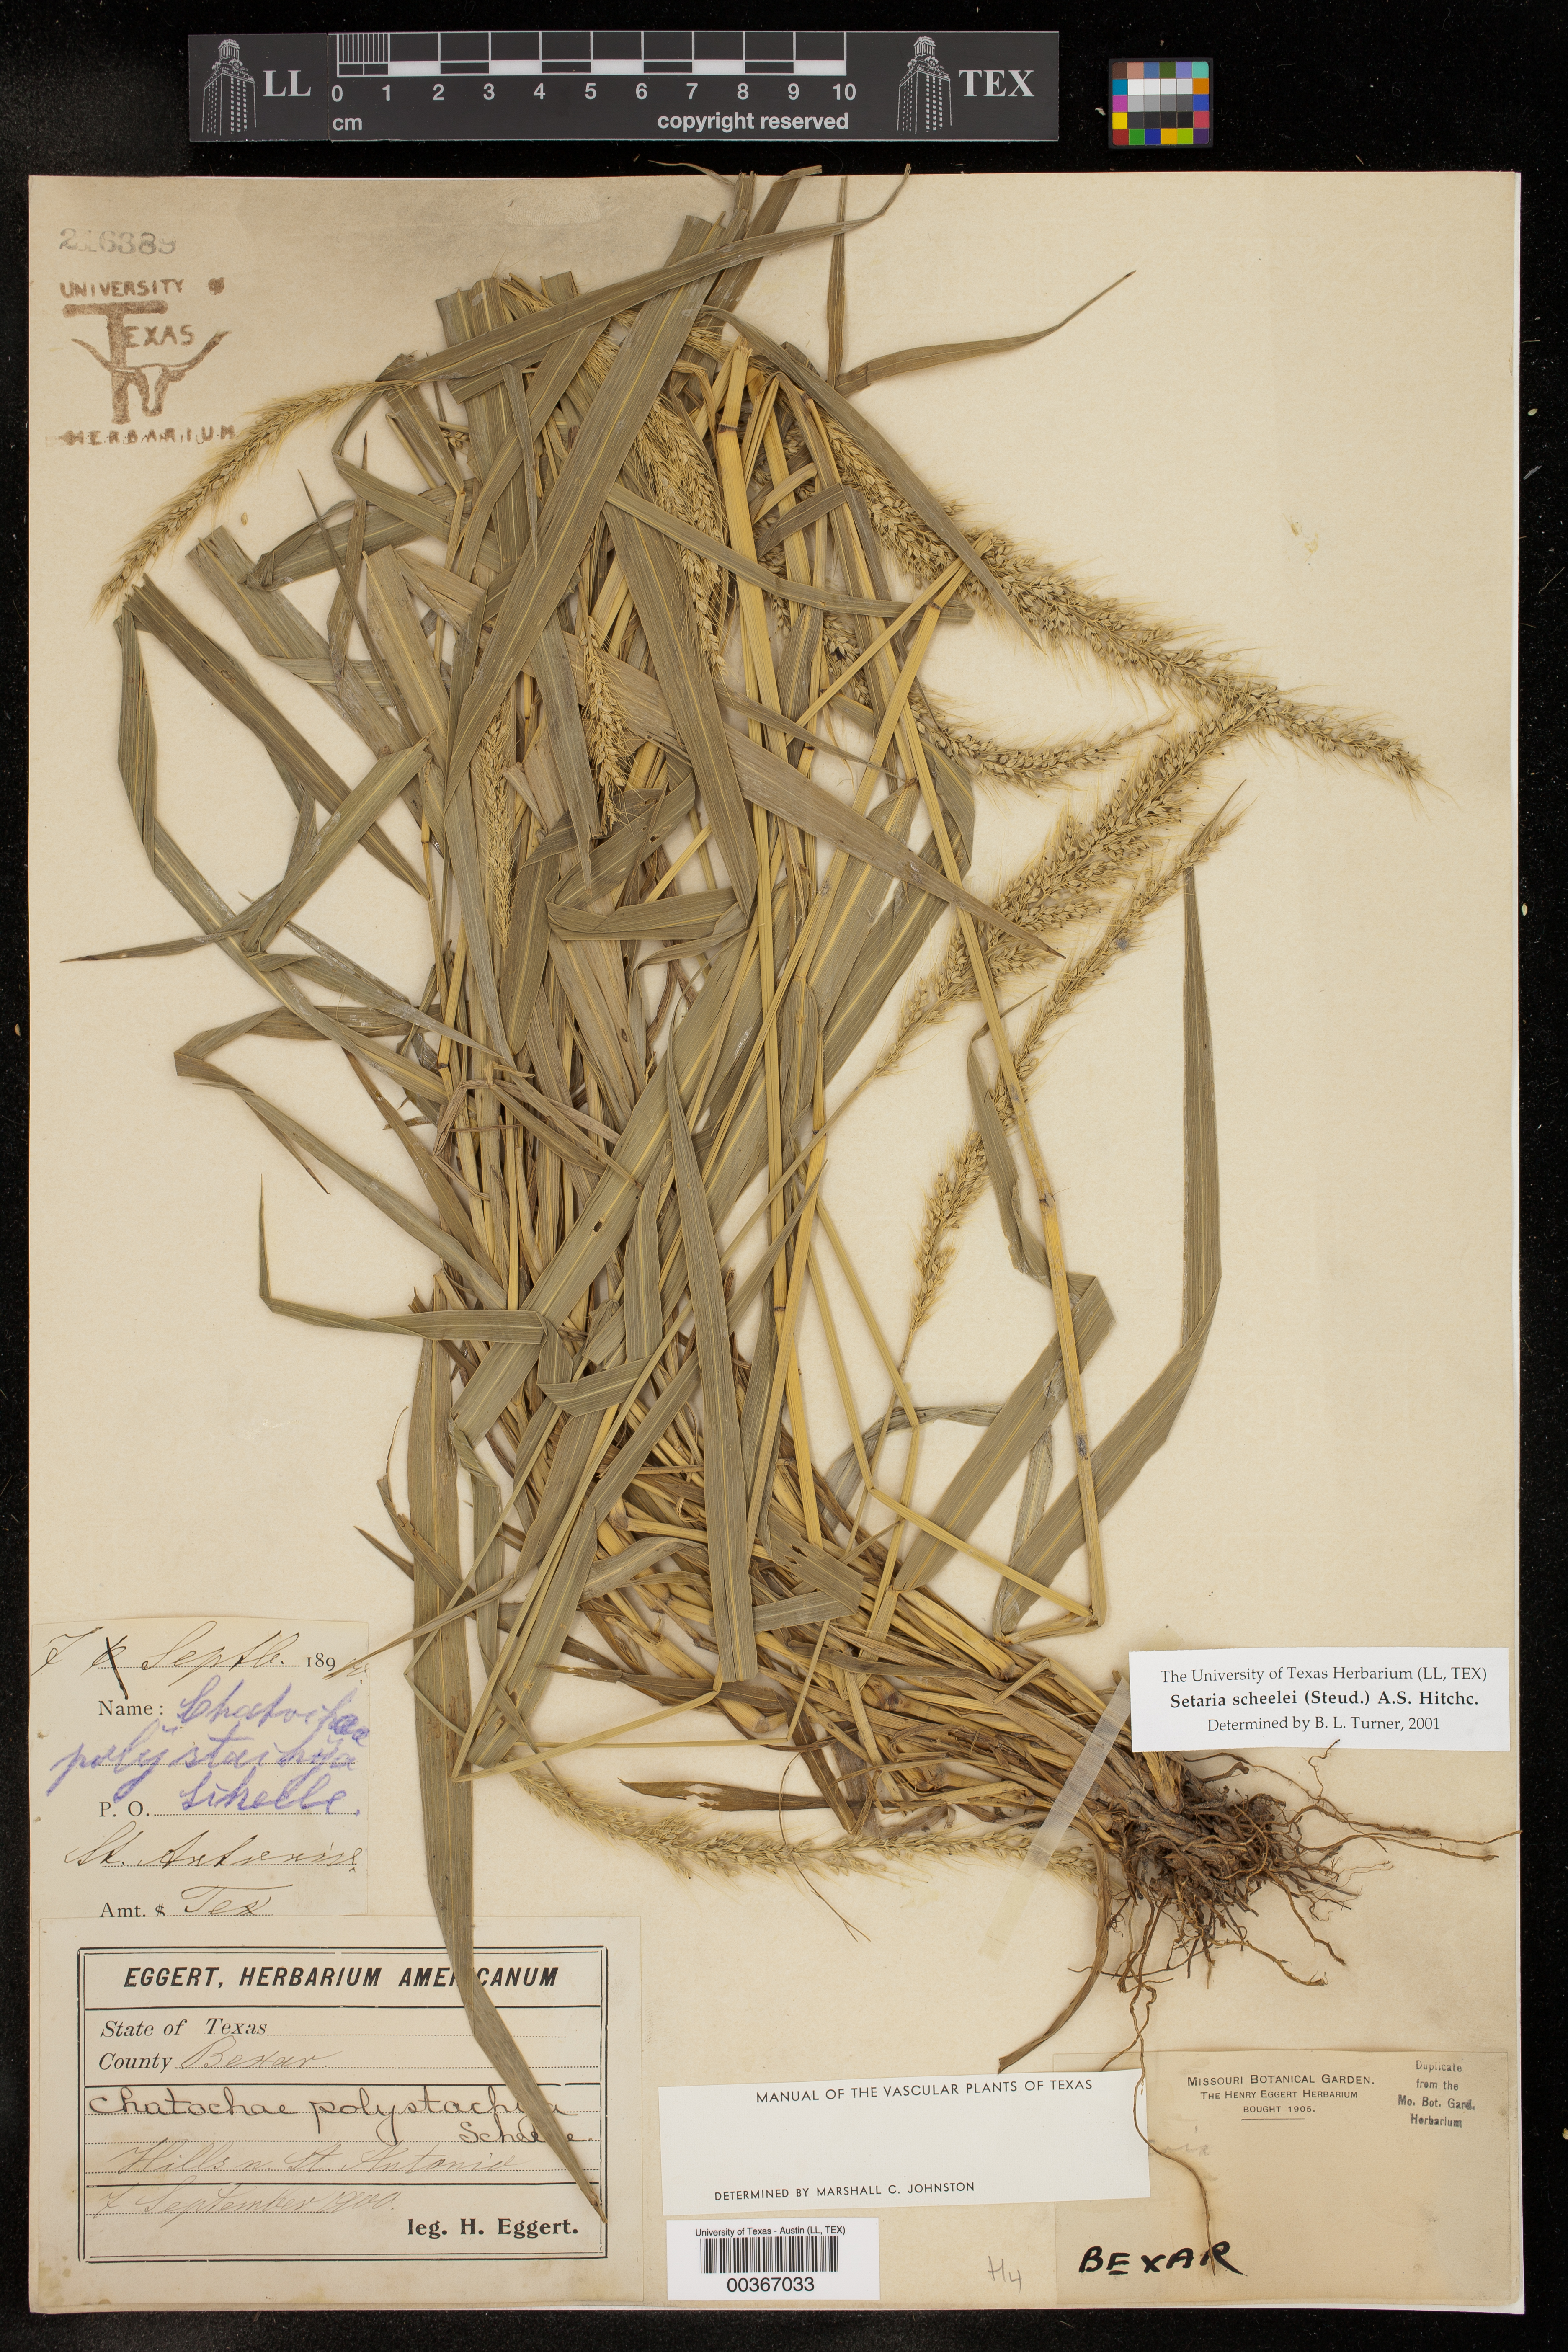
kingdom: Plantae
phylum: Tracheophyta
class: Liliopsida
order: Poales
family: Poaceae
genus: Setaria
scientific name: Setaria scheelei
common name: Southwestern bristle grass
